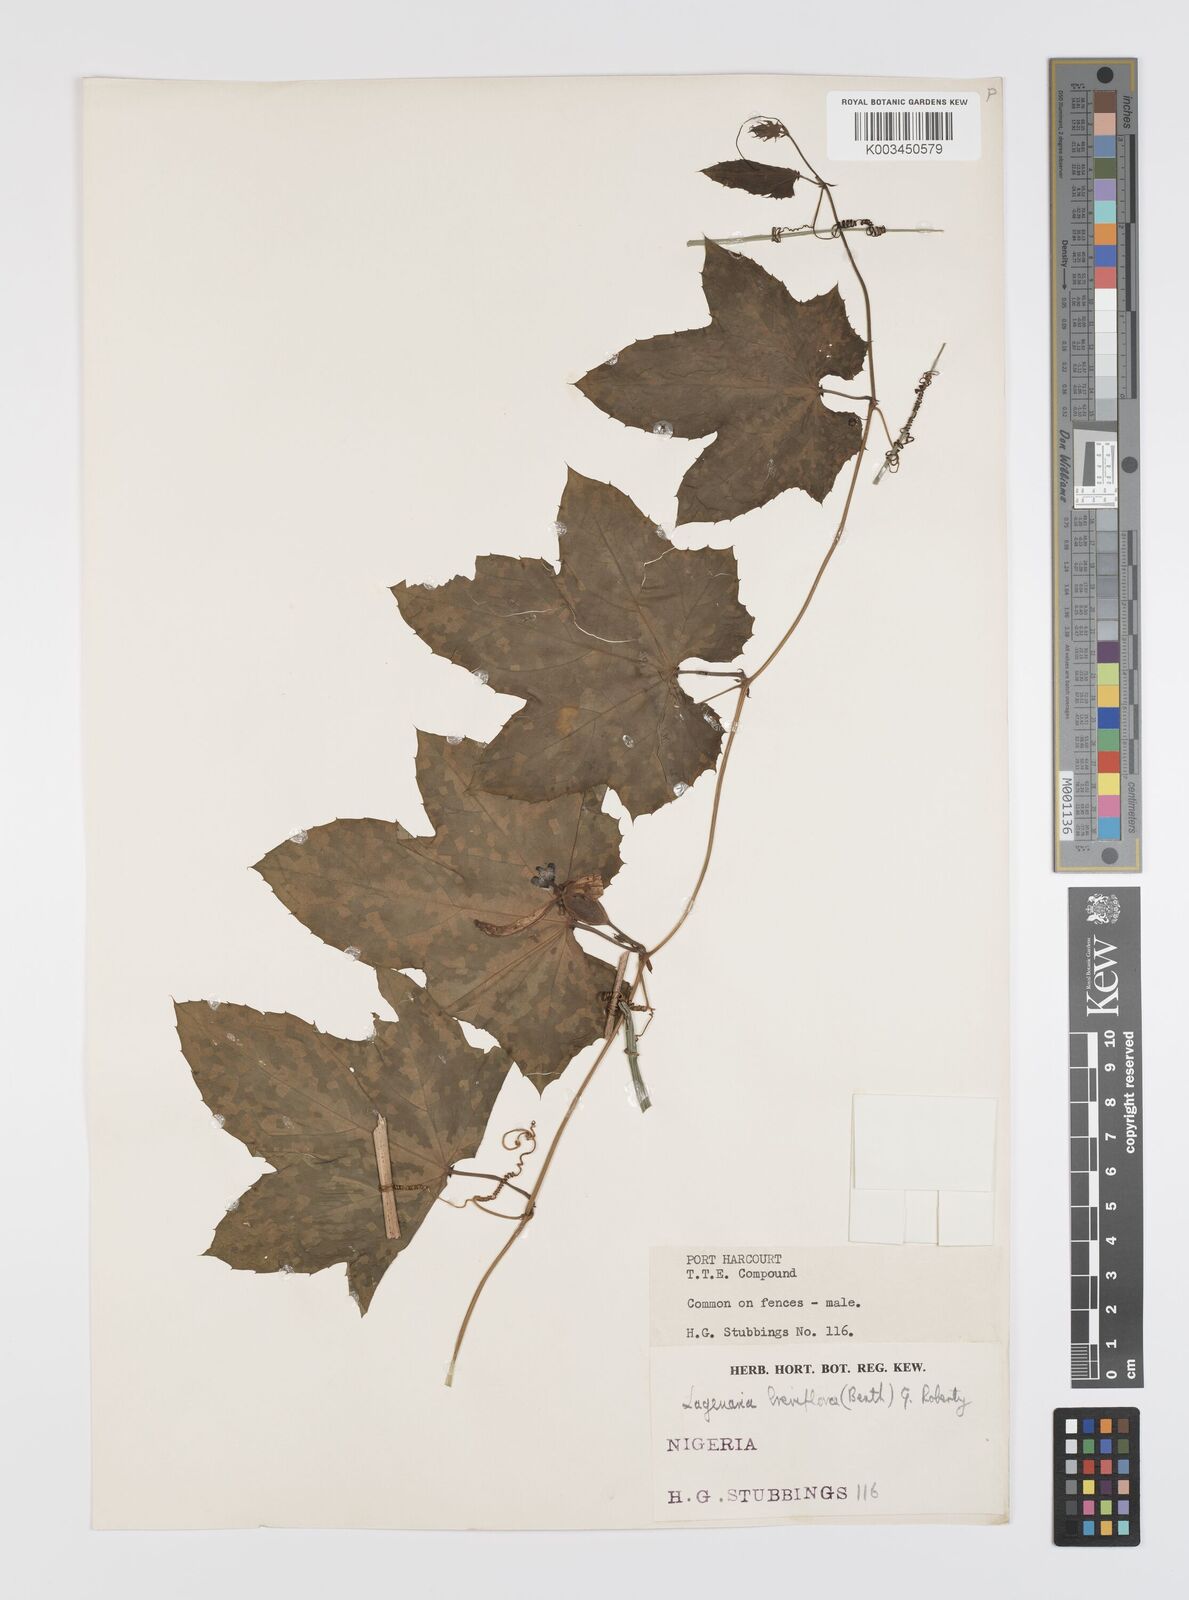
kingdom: Plantae
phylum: Tracheophyta
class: Magnoliopsida
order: Cucurbitales
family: Cucurbitaceae
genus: Lagenaria
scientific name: Lagenaria breviflora
